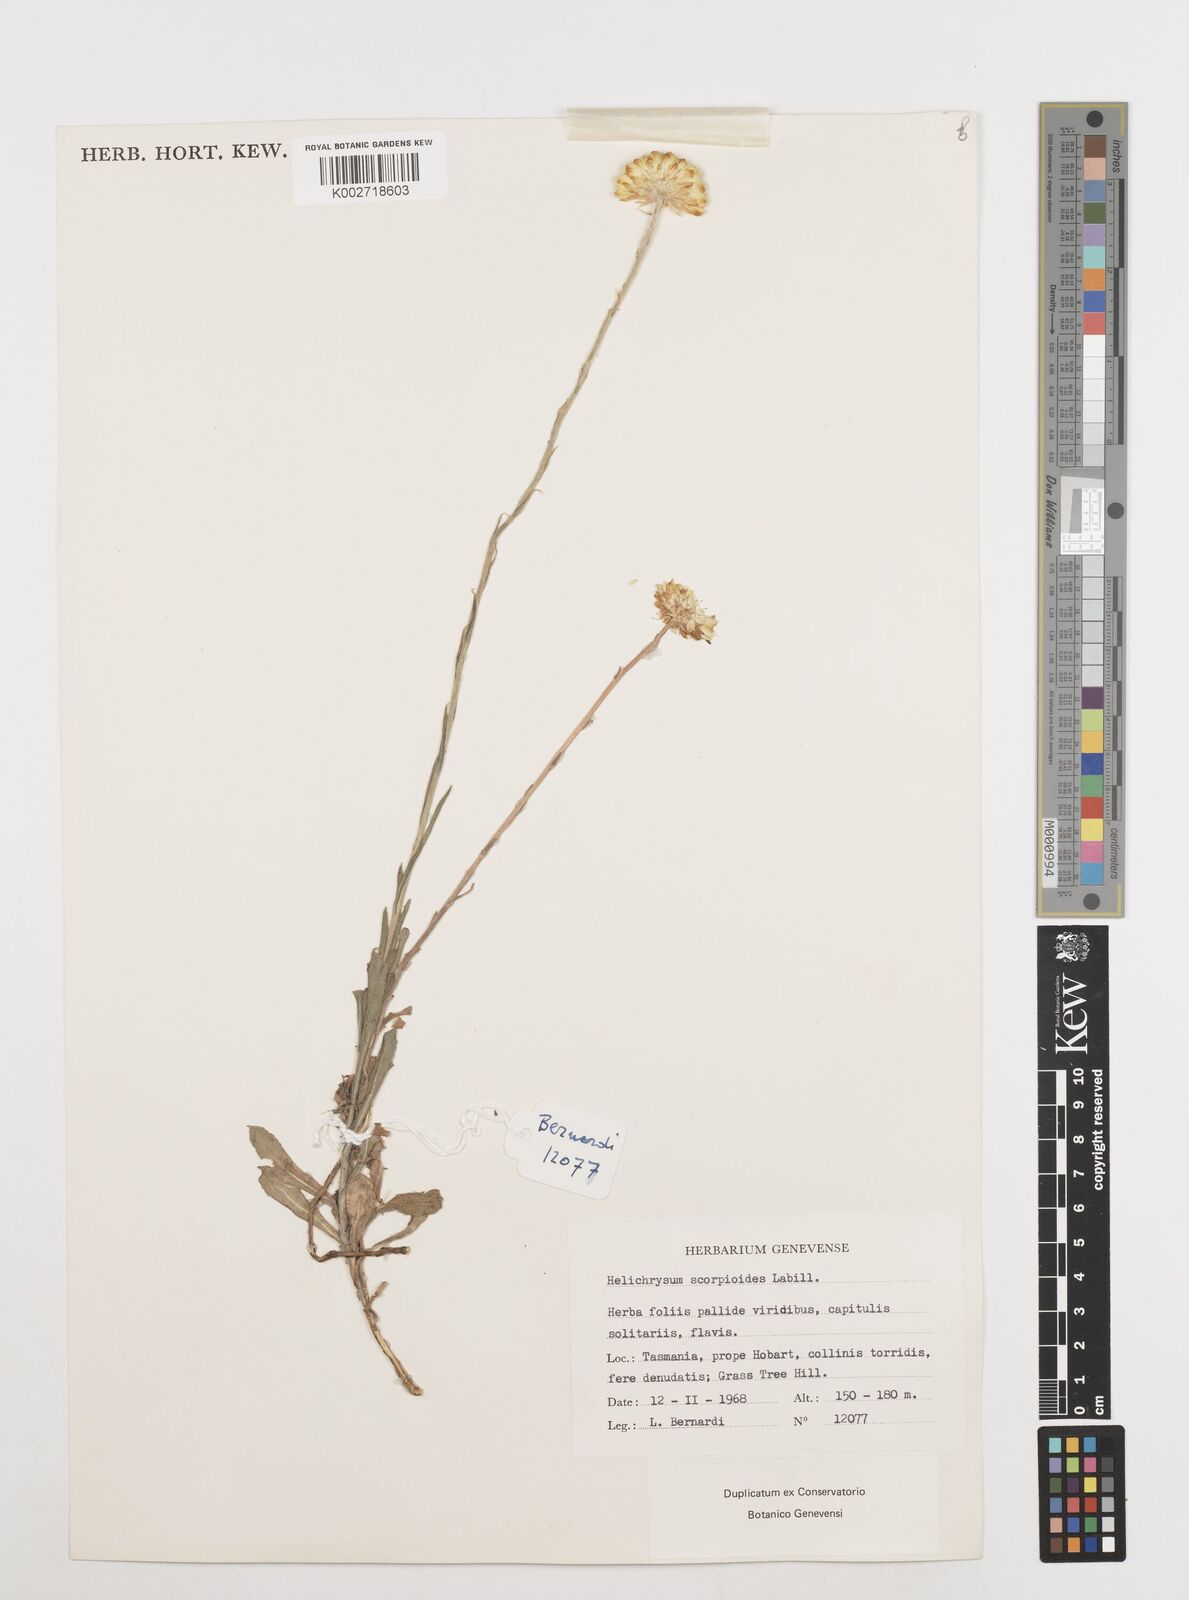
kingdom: Plantae
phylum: Tracheophyta
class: Magnoliopsida
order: Asterales
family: Asteraceae
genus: Coronidium
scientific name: Coronidium scorpioides
